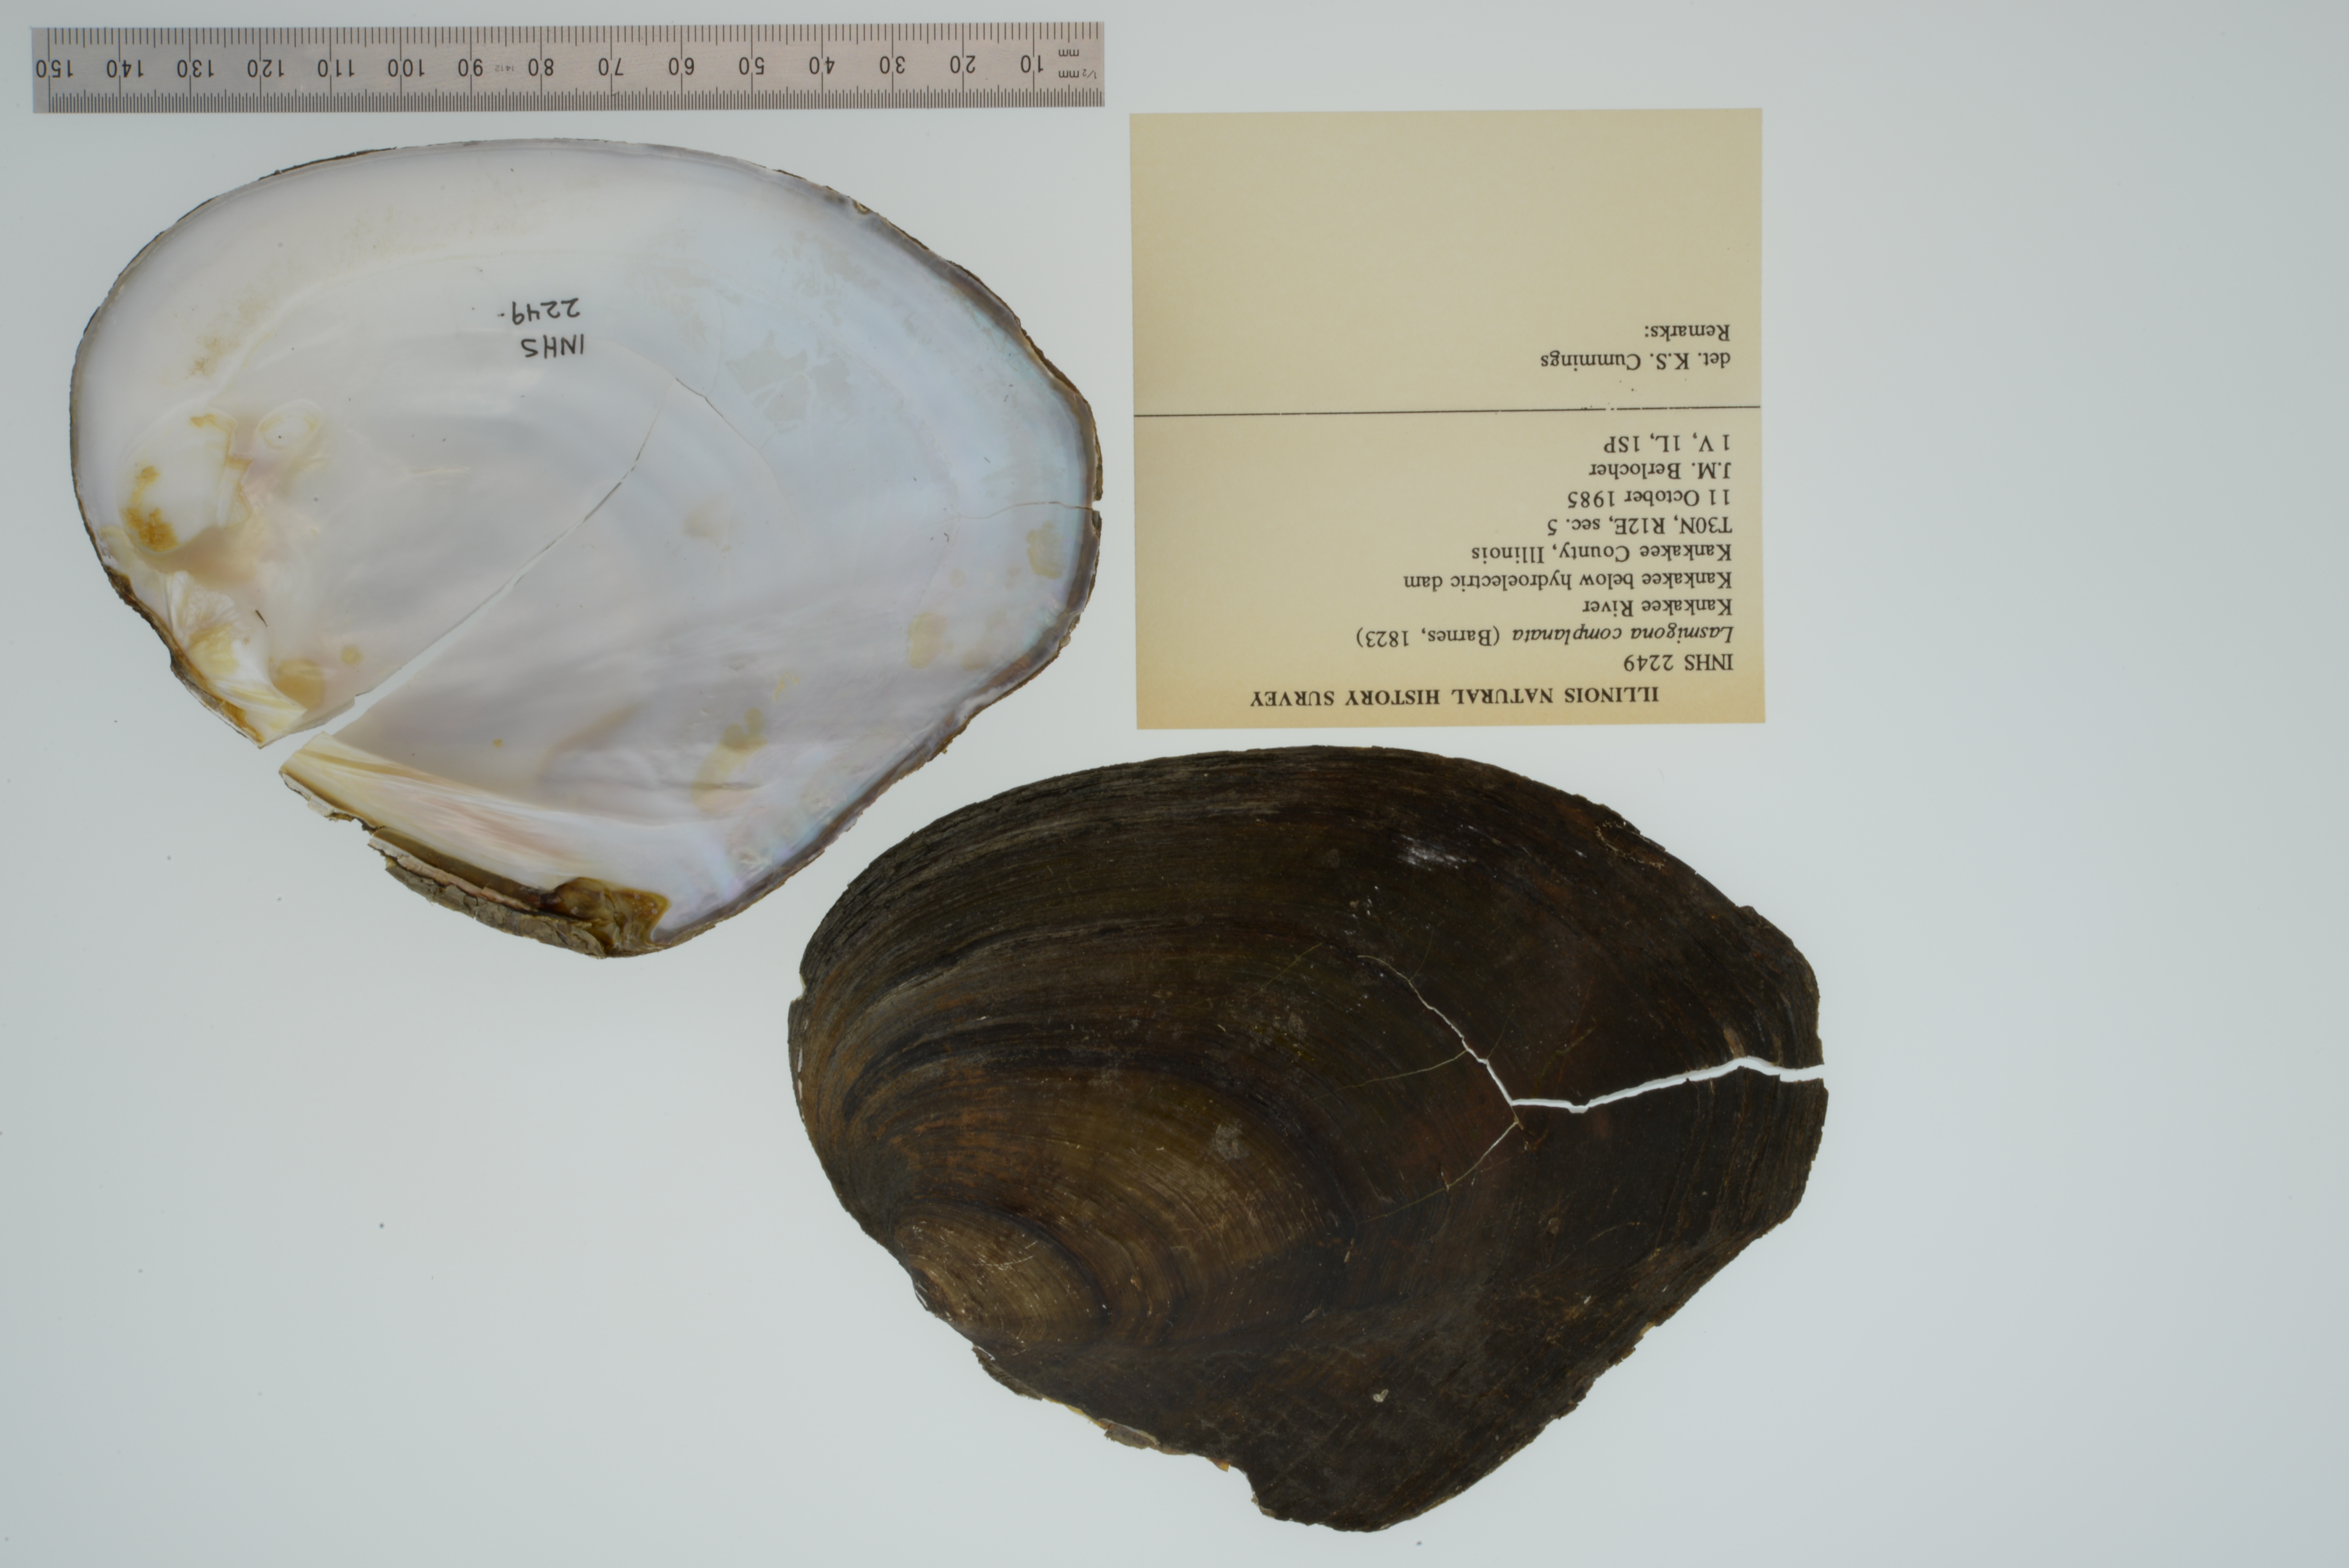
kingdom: Animalia
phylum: Mollusca
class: Bivalvia
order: Unionida
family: Unionidae
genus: Lasmigona
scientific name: Lasmigona complanata
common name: White heelsplitter
